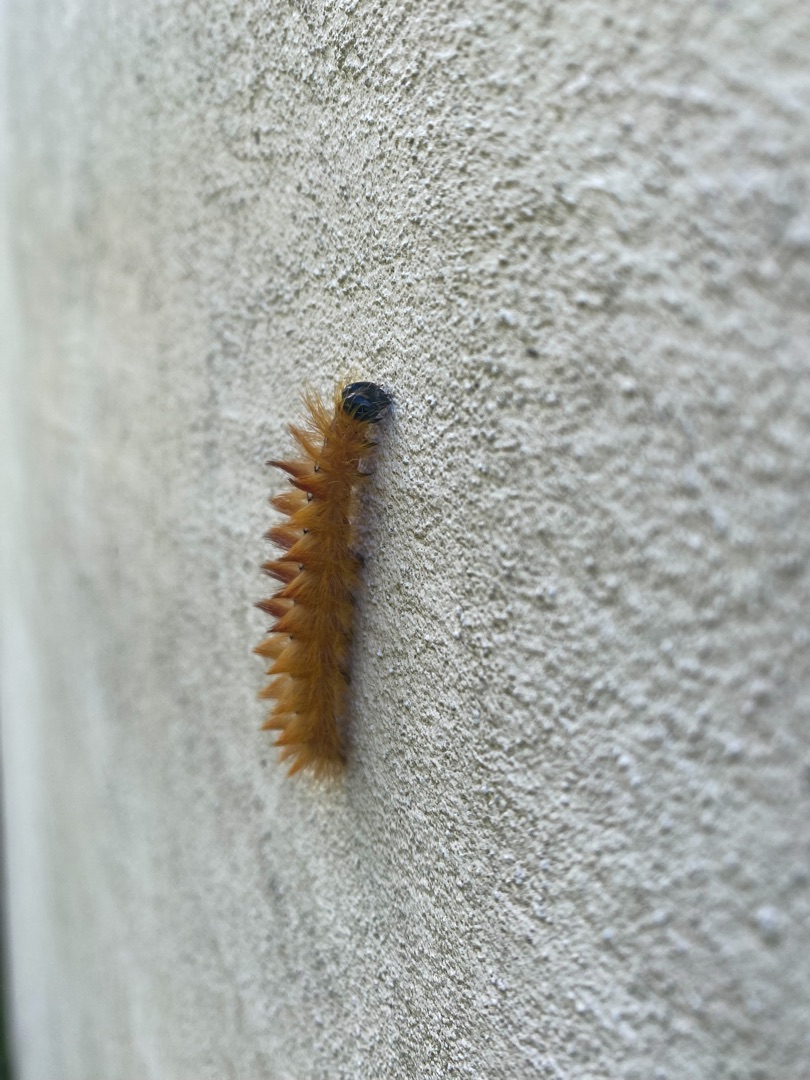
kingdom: Animalia
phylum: Arthropoda
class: Insecta
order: Lepidoptera
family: Noctuidae
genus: Acronicta
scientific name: Acronicta aceris
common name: Ahornugle
